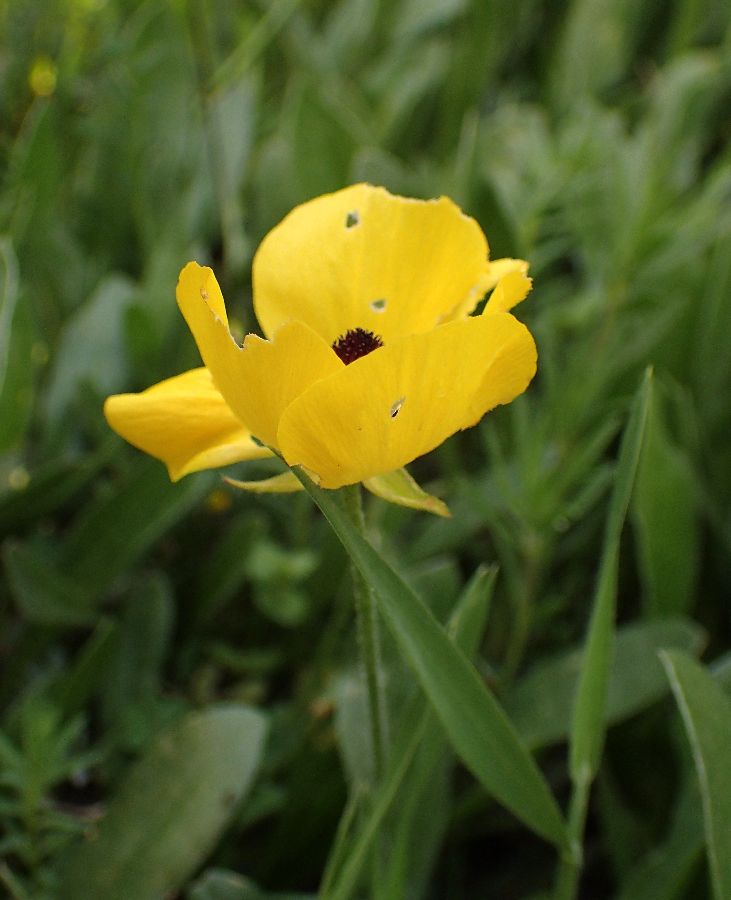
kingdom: Plantae
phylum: Tracheophyta
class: Magnoliopsida
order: Ranunculales
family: Ranunculaceae
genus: Ranunculus
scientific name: Ranunculus asiaticus
